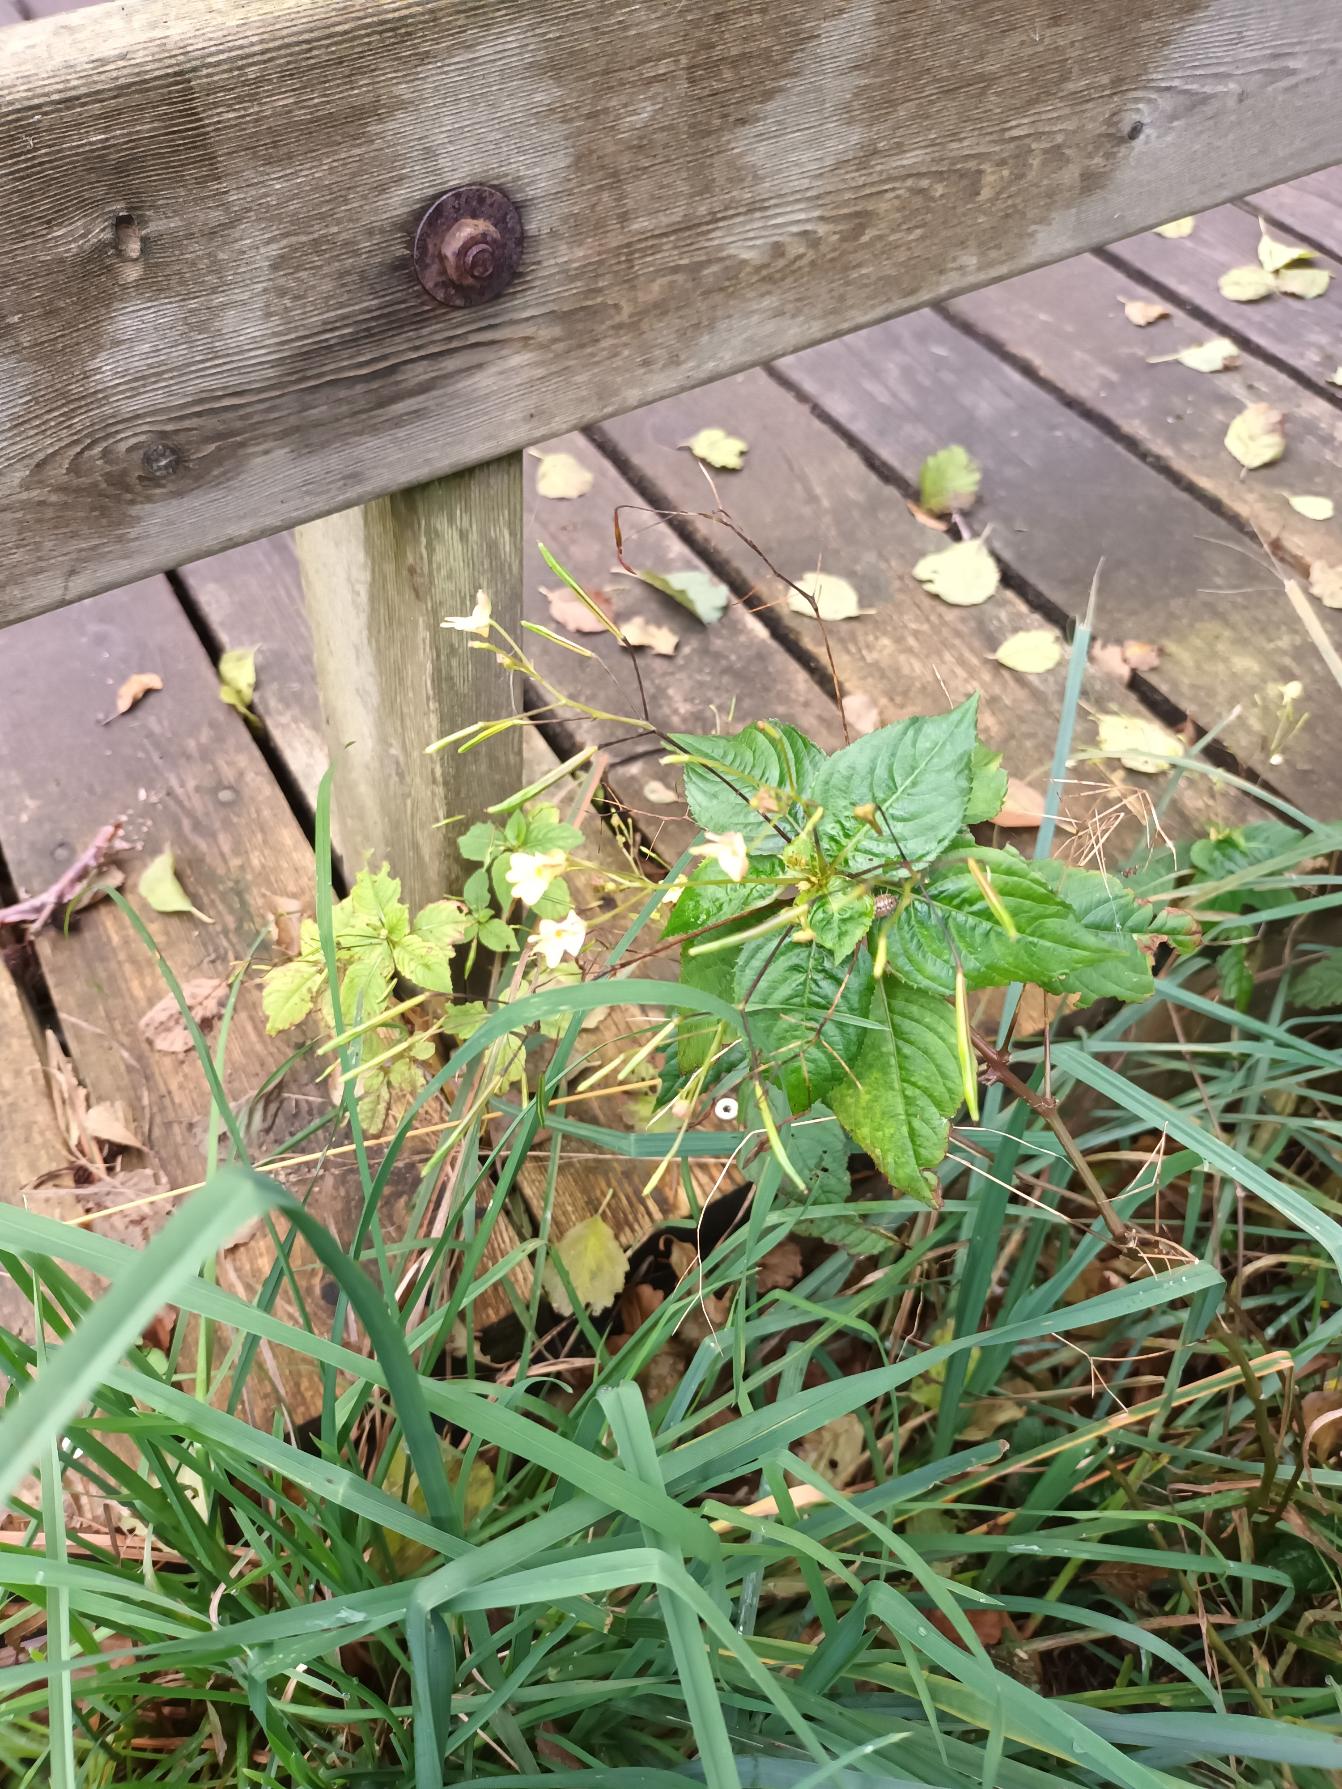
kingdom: Plantae
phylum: Tracheophyta
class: Magnoliopsida
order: Ericales
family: Balsaminaceae
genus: Impatiens
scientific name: Impatiens parviflora
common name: Småblomstret balsamin
